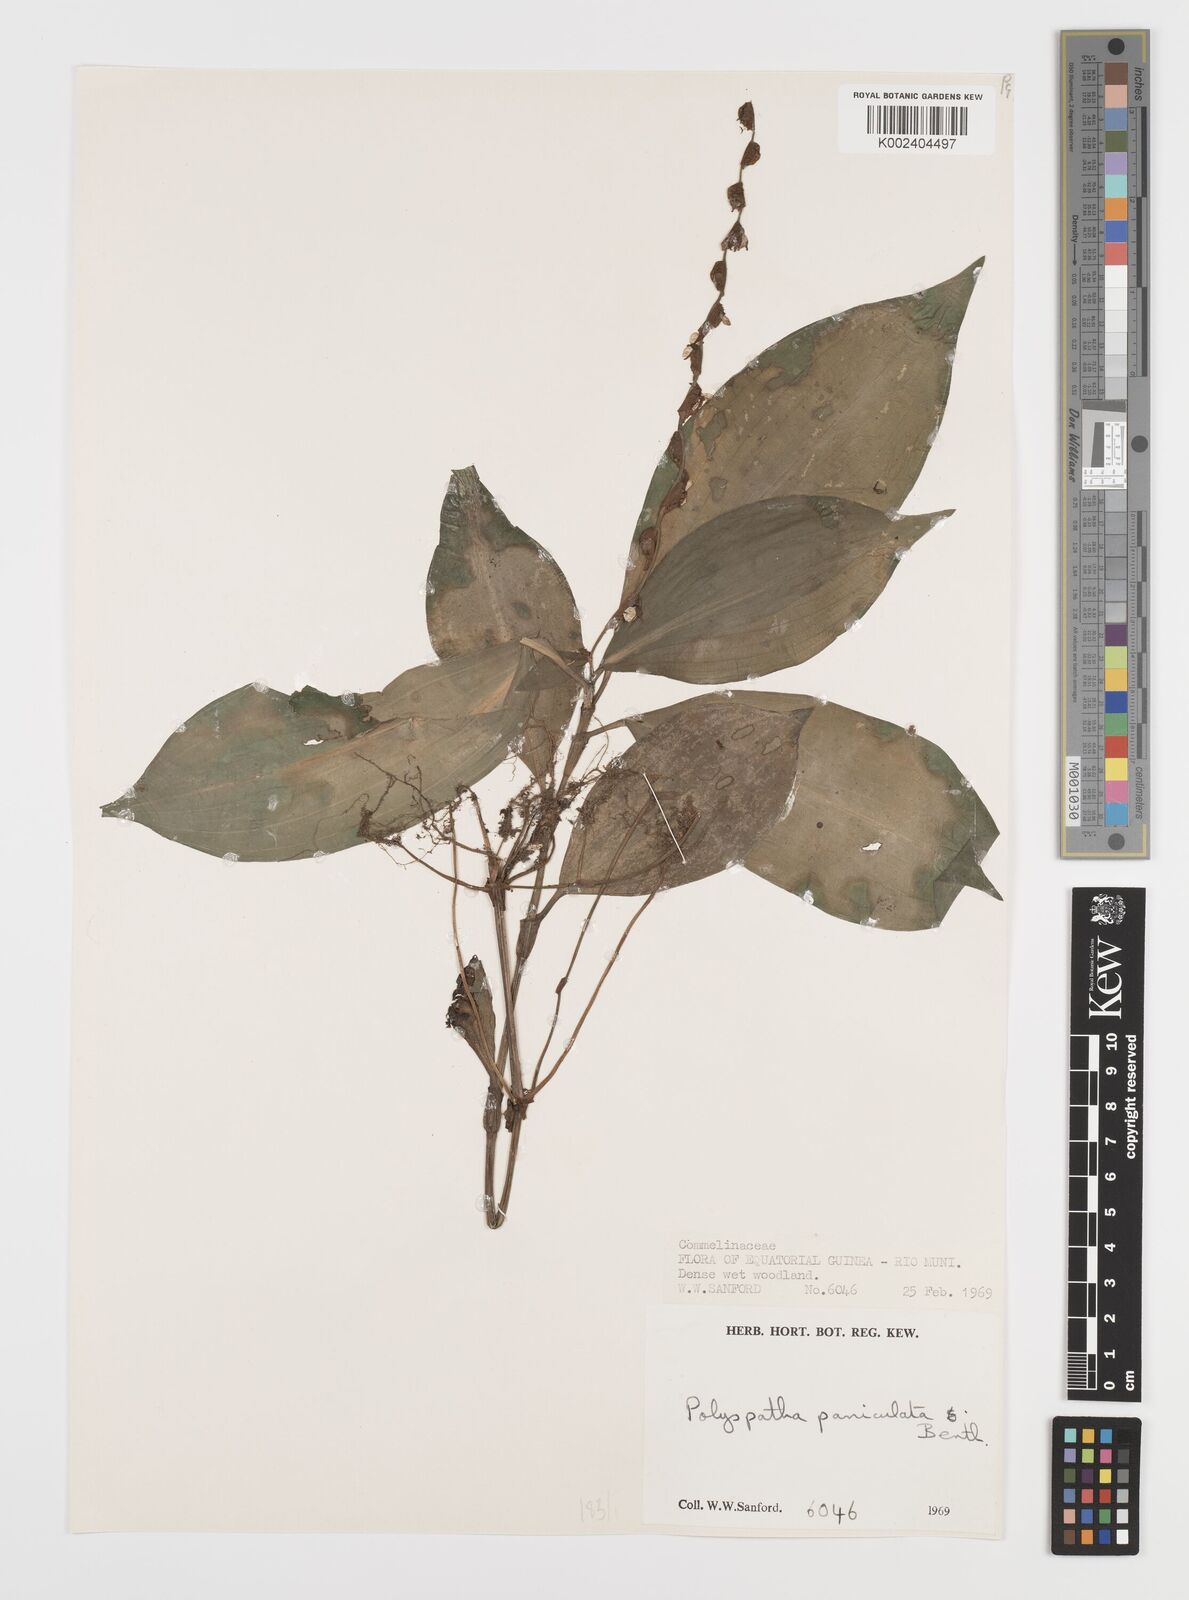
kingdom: Plantae
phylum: Tracheophyta
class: Liliopsida
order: Commelinales
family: Commelinaceae
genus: Polyspatha
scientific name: Polyspatha paniculata
